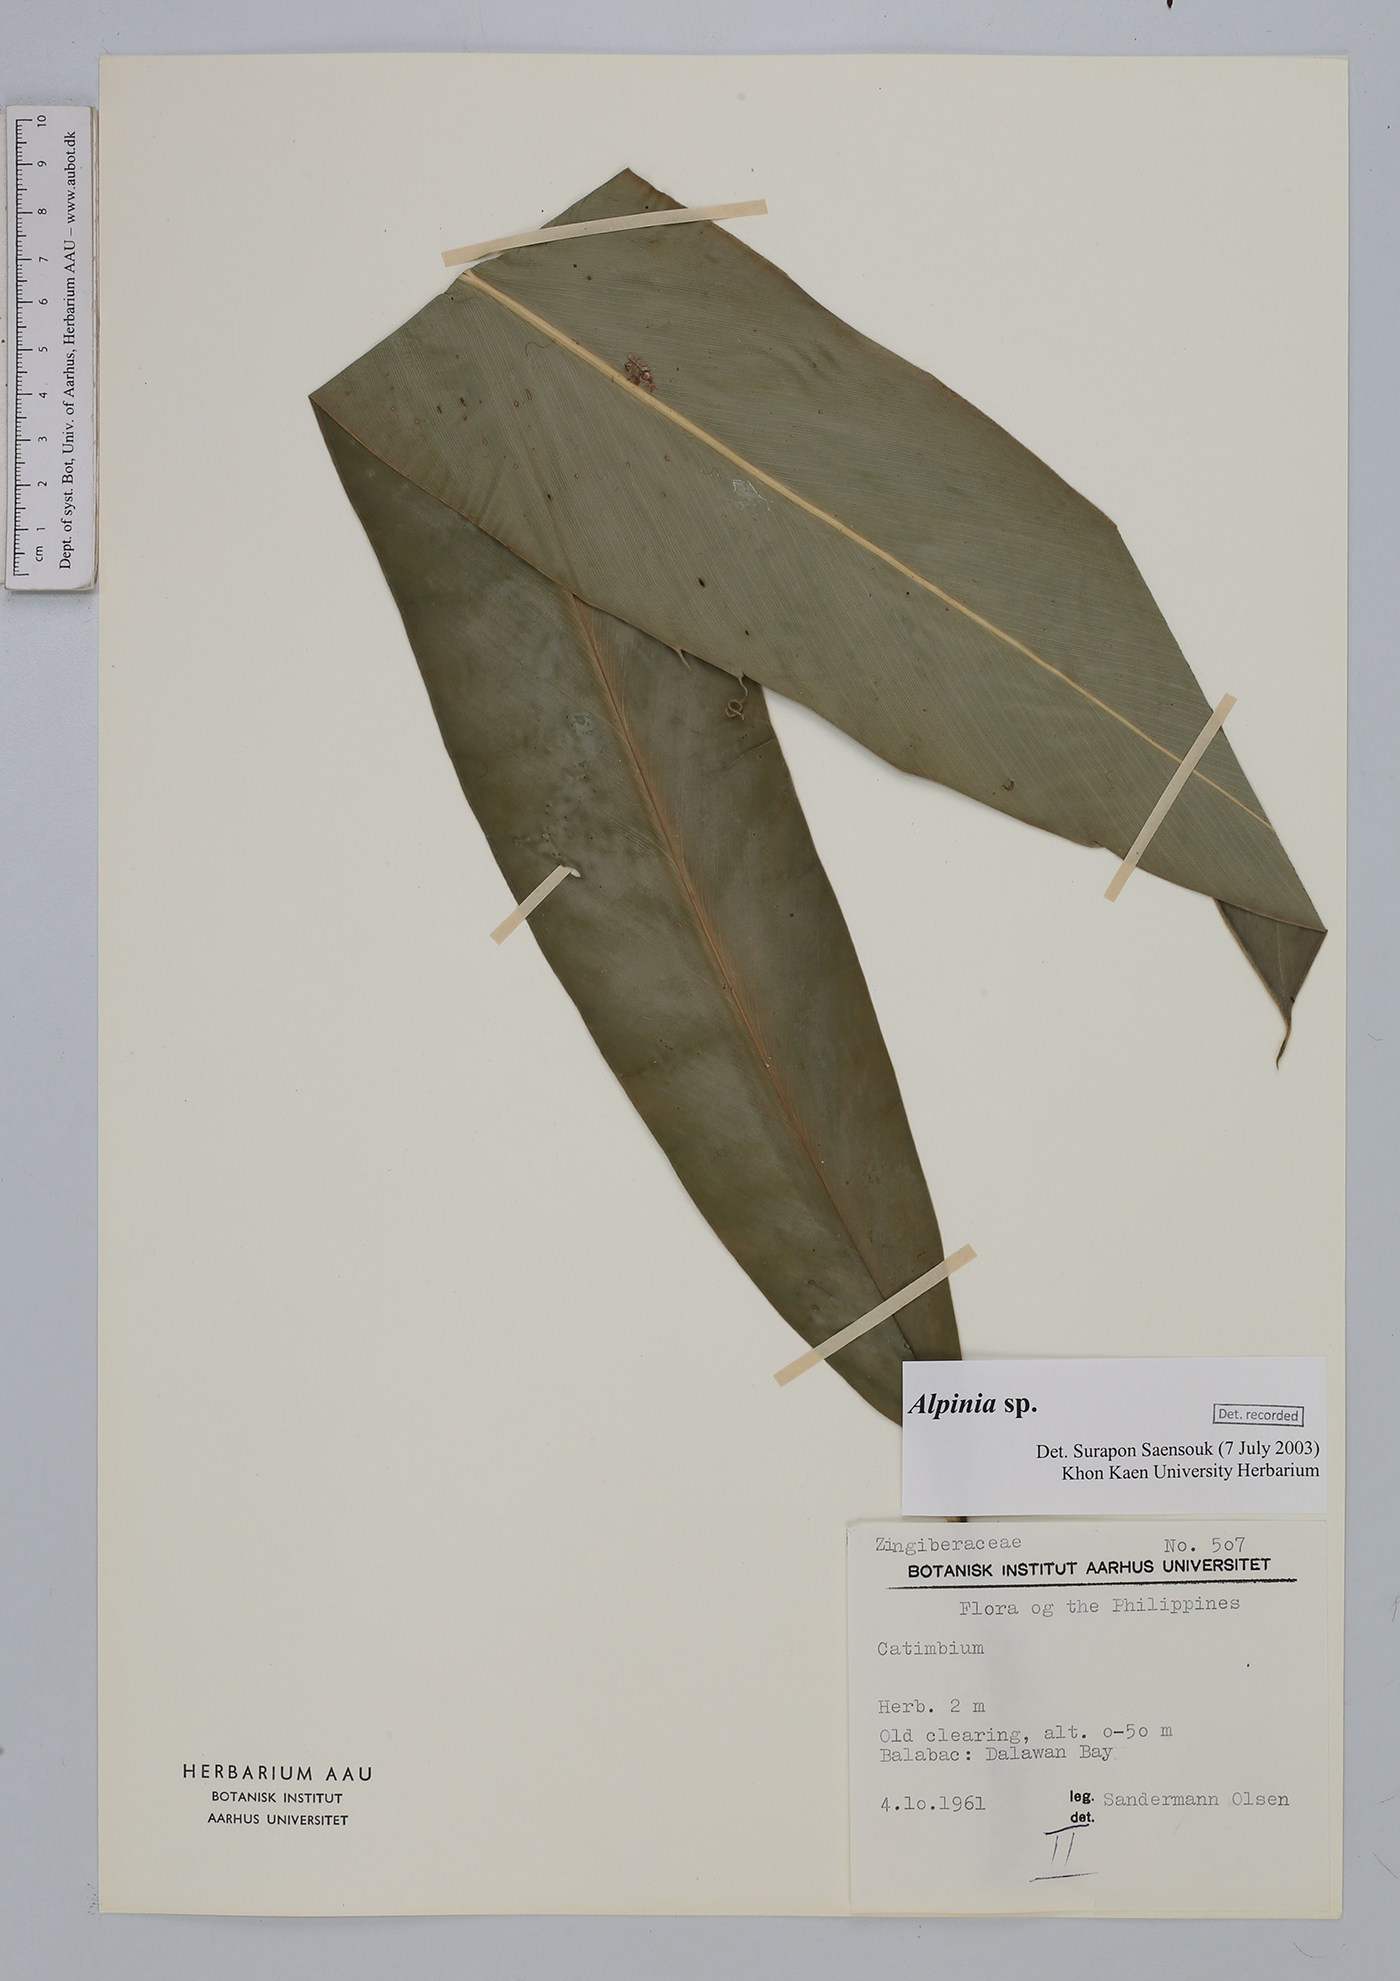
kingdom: Plantae
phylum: Tracheophyta
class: Liliopsida
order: Zingiberales
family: Zingiberaceae
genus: Alpinia
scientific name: Alpinia
